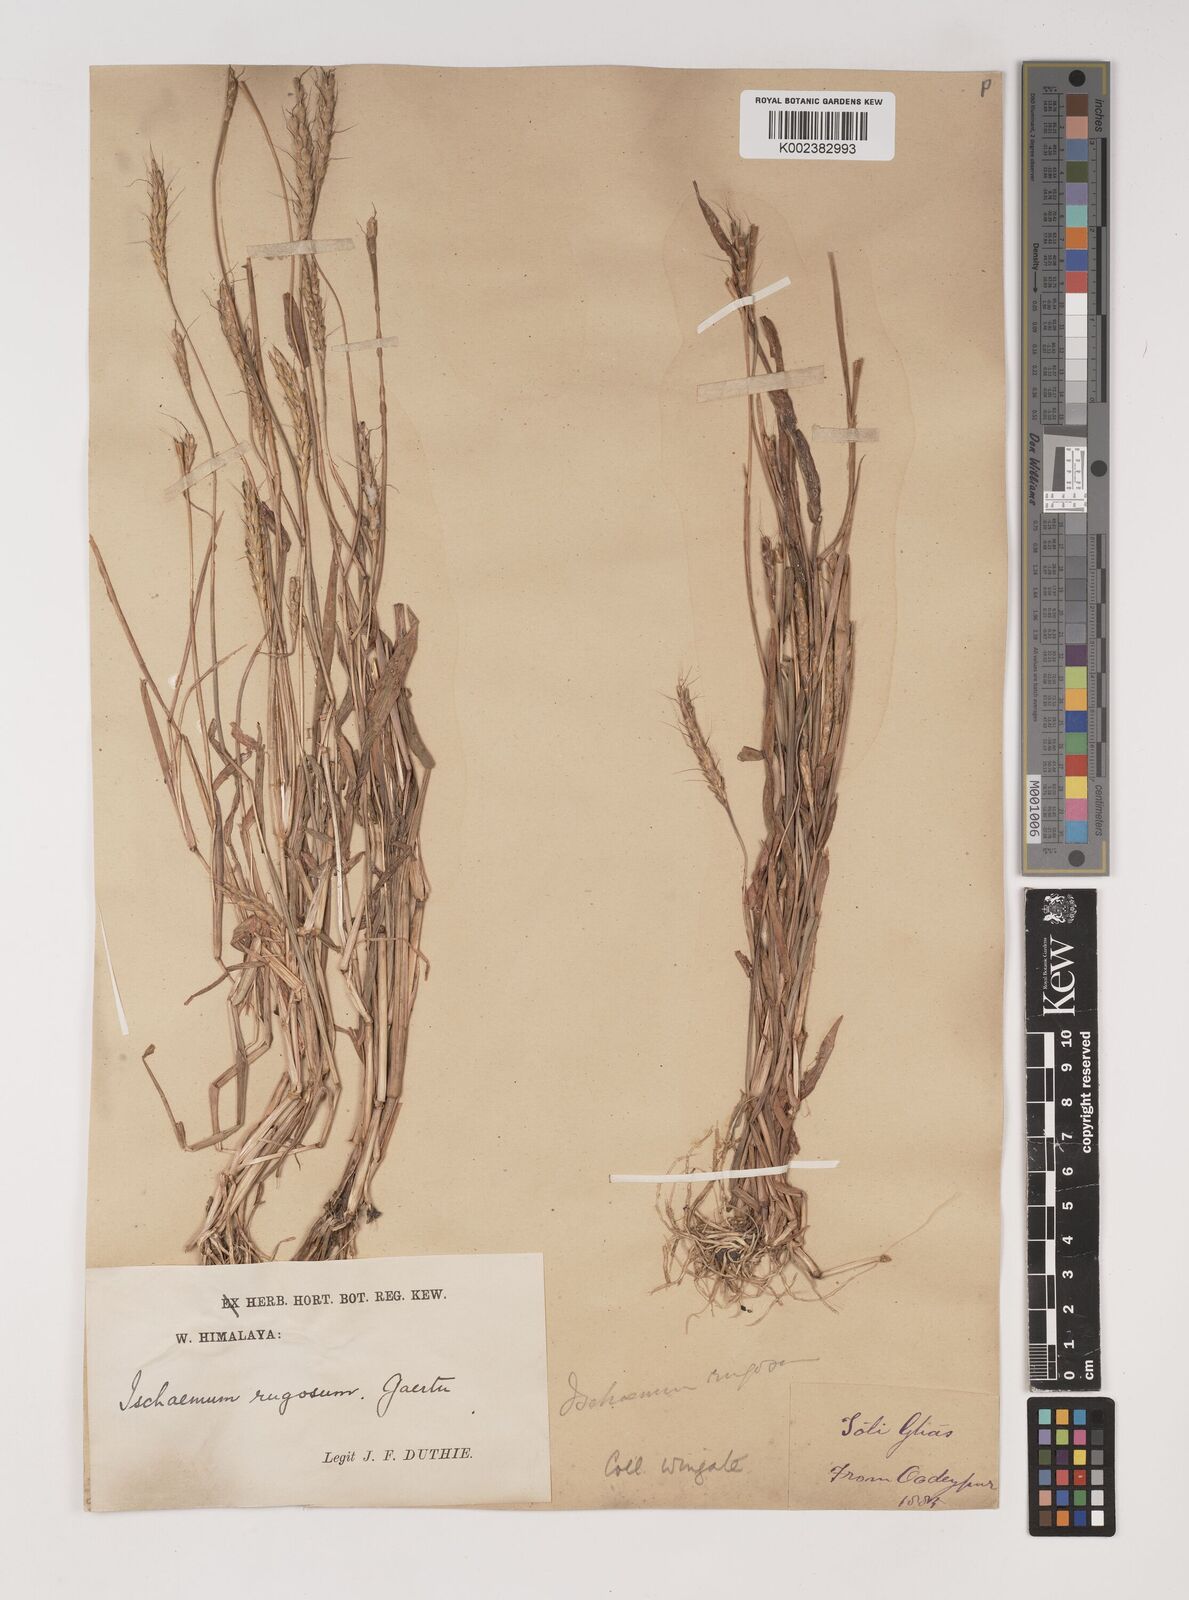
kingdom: Plantae
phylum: Tracheophyta
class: Liliopsida
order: Poales
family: Poaceae
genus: Ischaemum
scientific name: Ischaemum rugosum
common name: Saramatta grass
